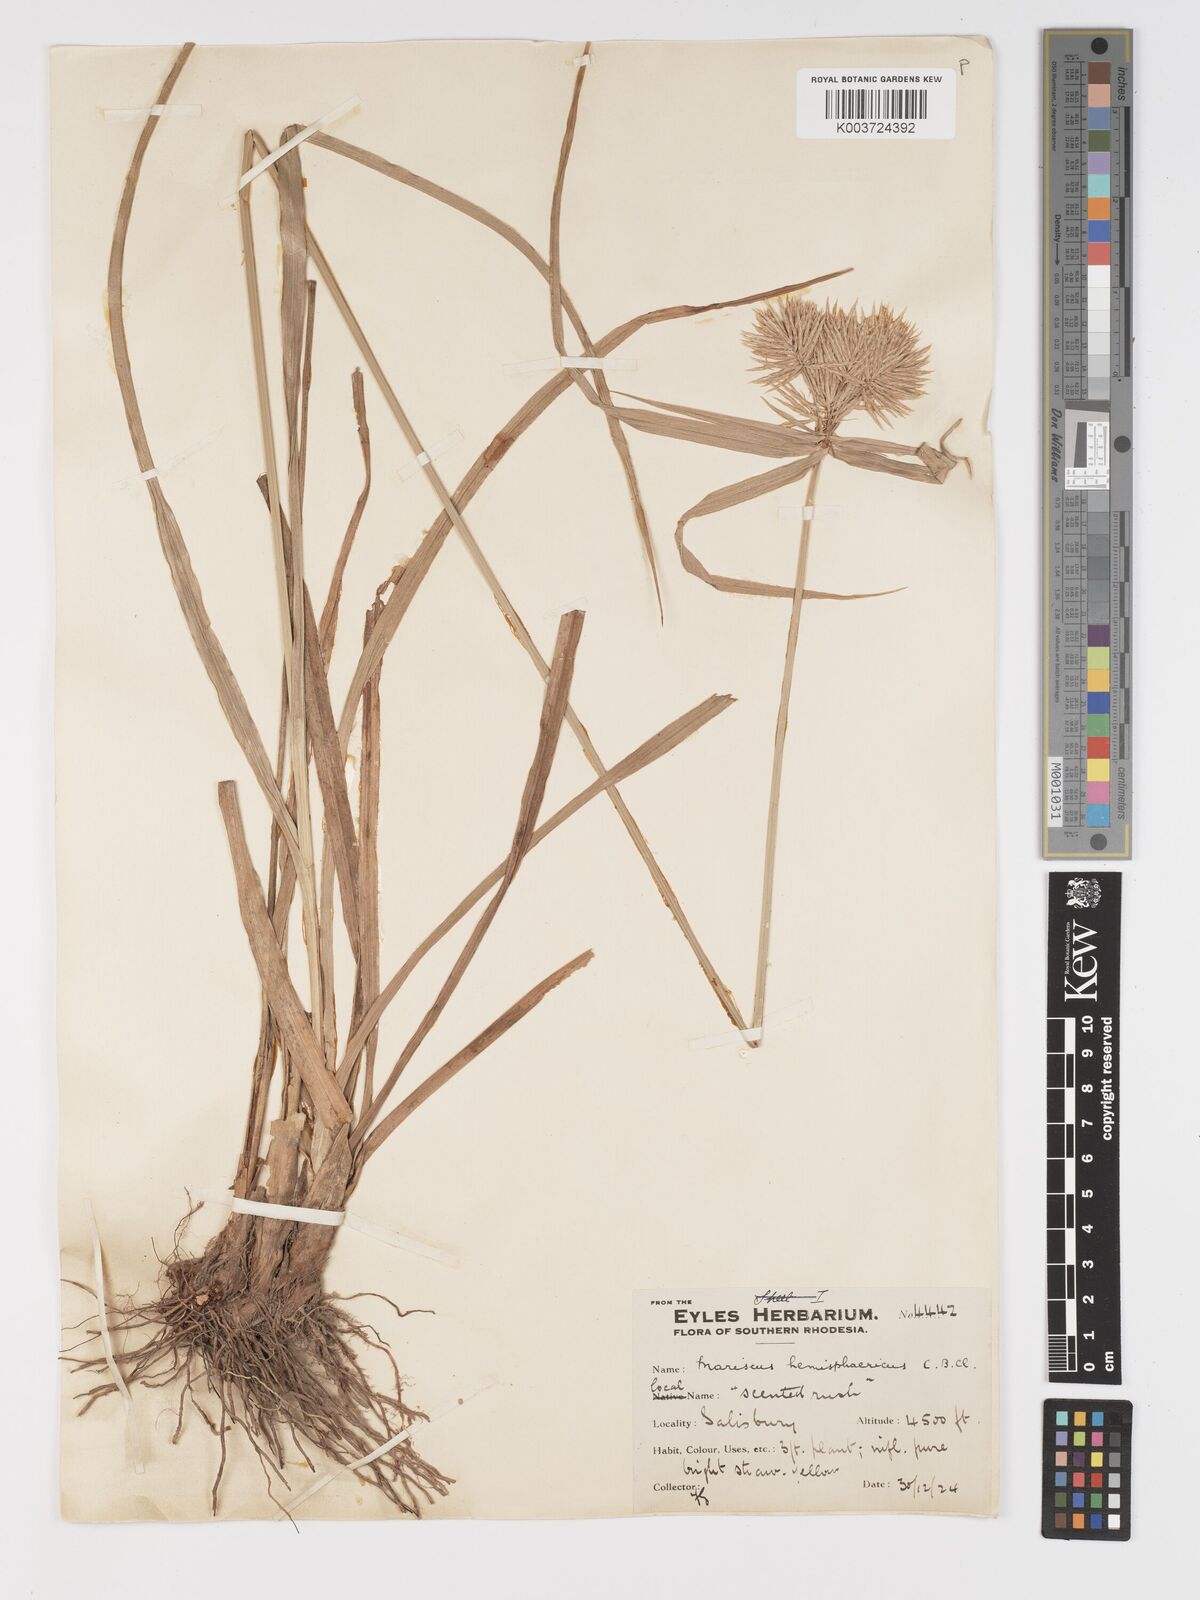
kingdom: Plantae
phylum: Tracheophyta
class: Liliopsida
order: Poales
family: Cyperaceae
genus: Cyperus
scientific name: Cyperus hemisphaericus
